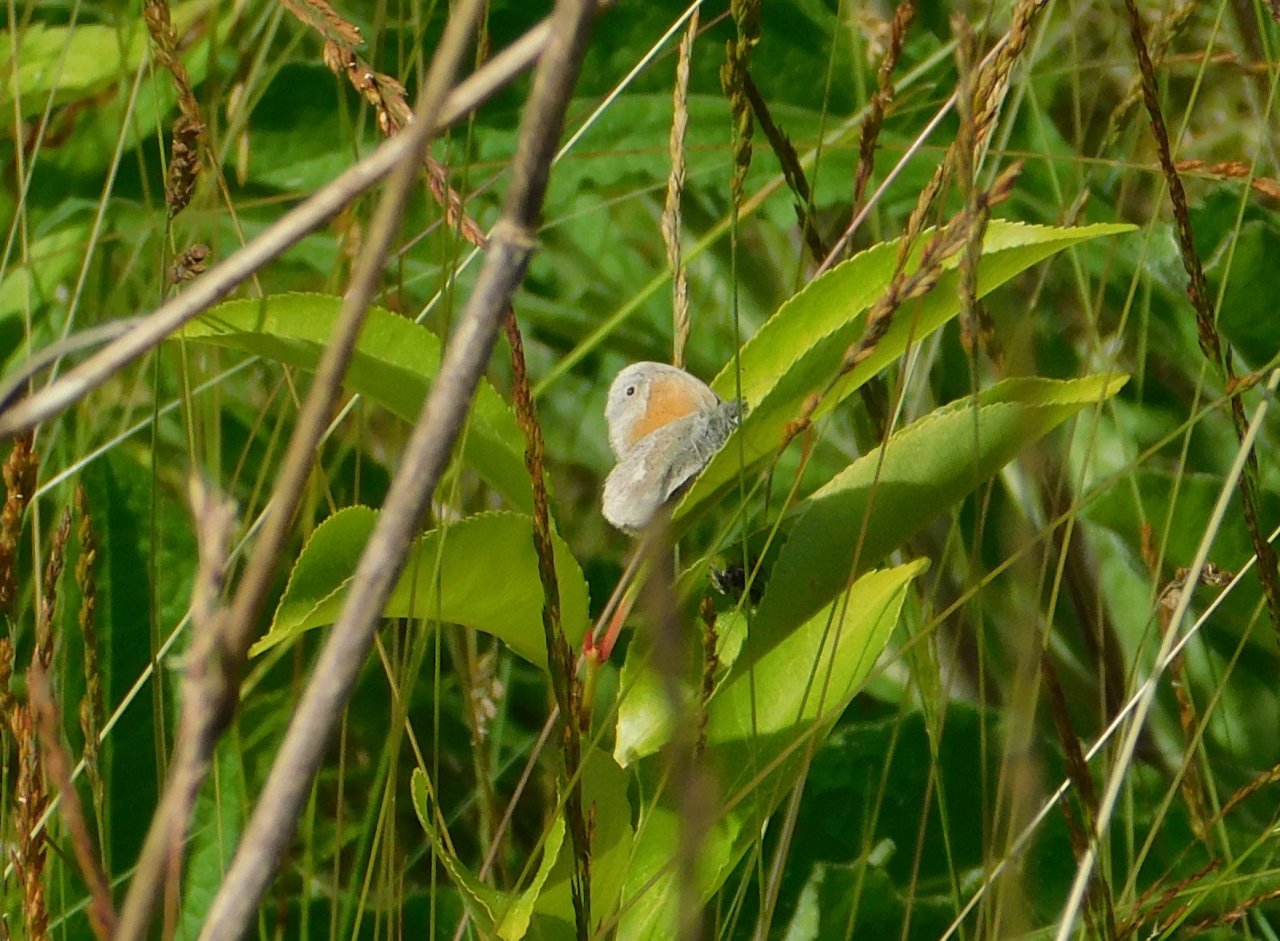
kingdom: Animalia
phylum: Arthropoda
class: Insecta
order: Lepidoptera
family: Nymphalidae
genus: Coenonympha
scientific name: Coenonympha tullia
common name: Large Heath
